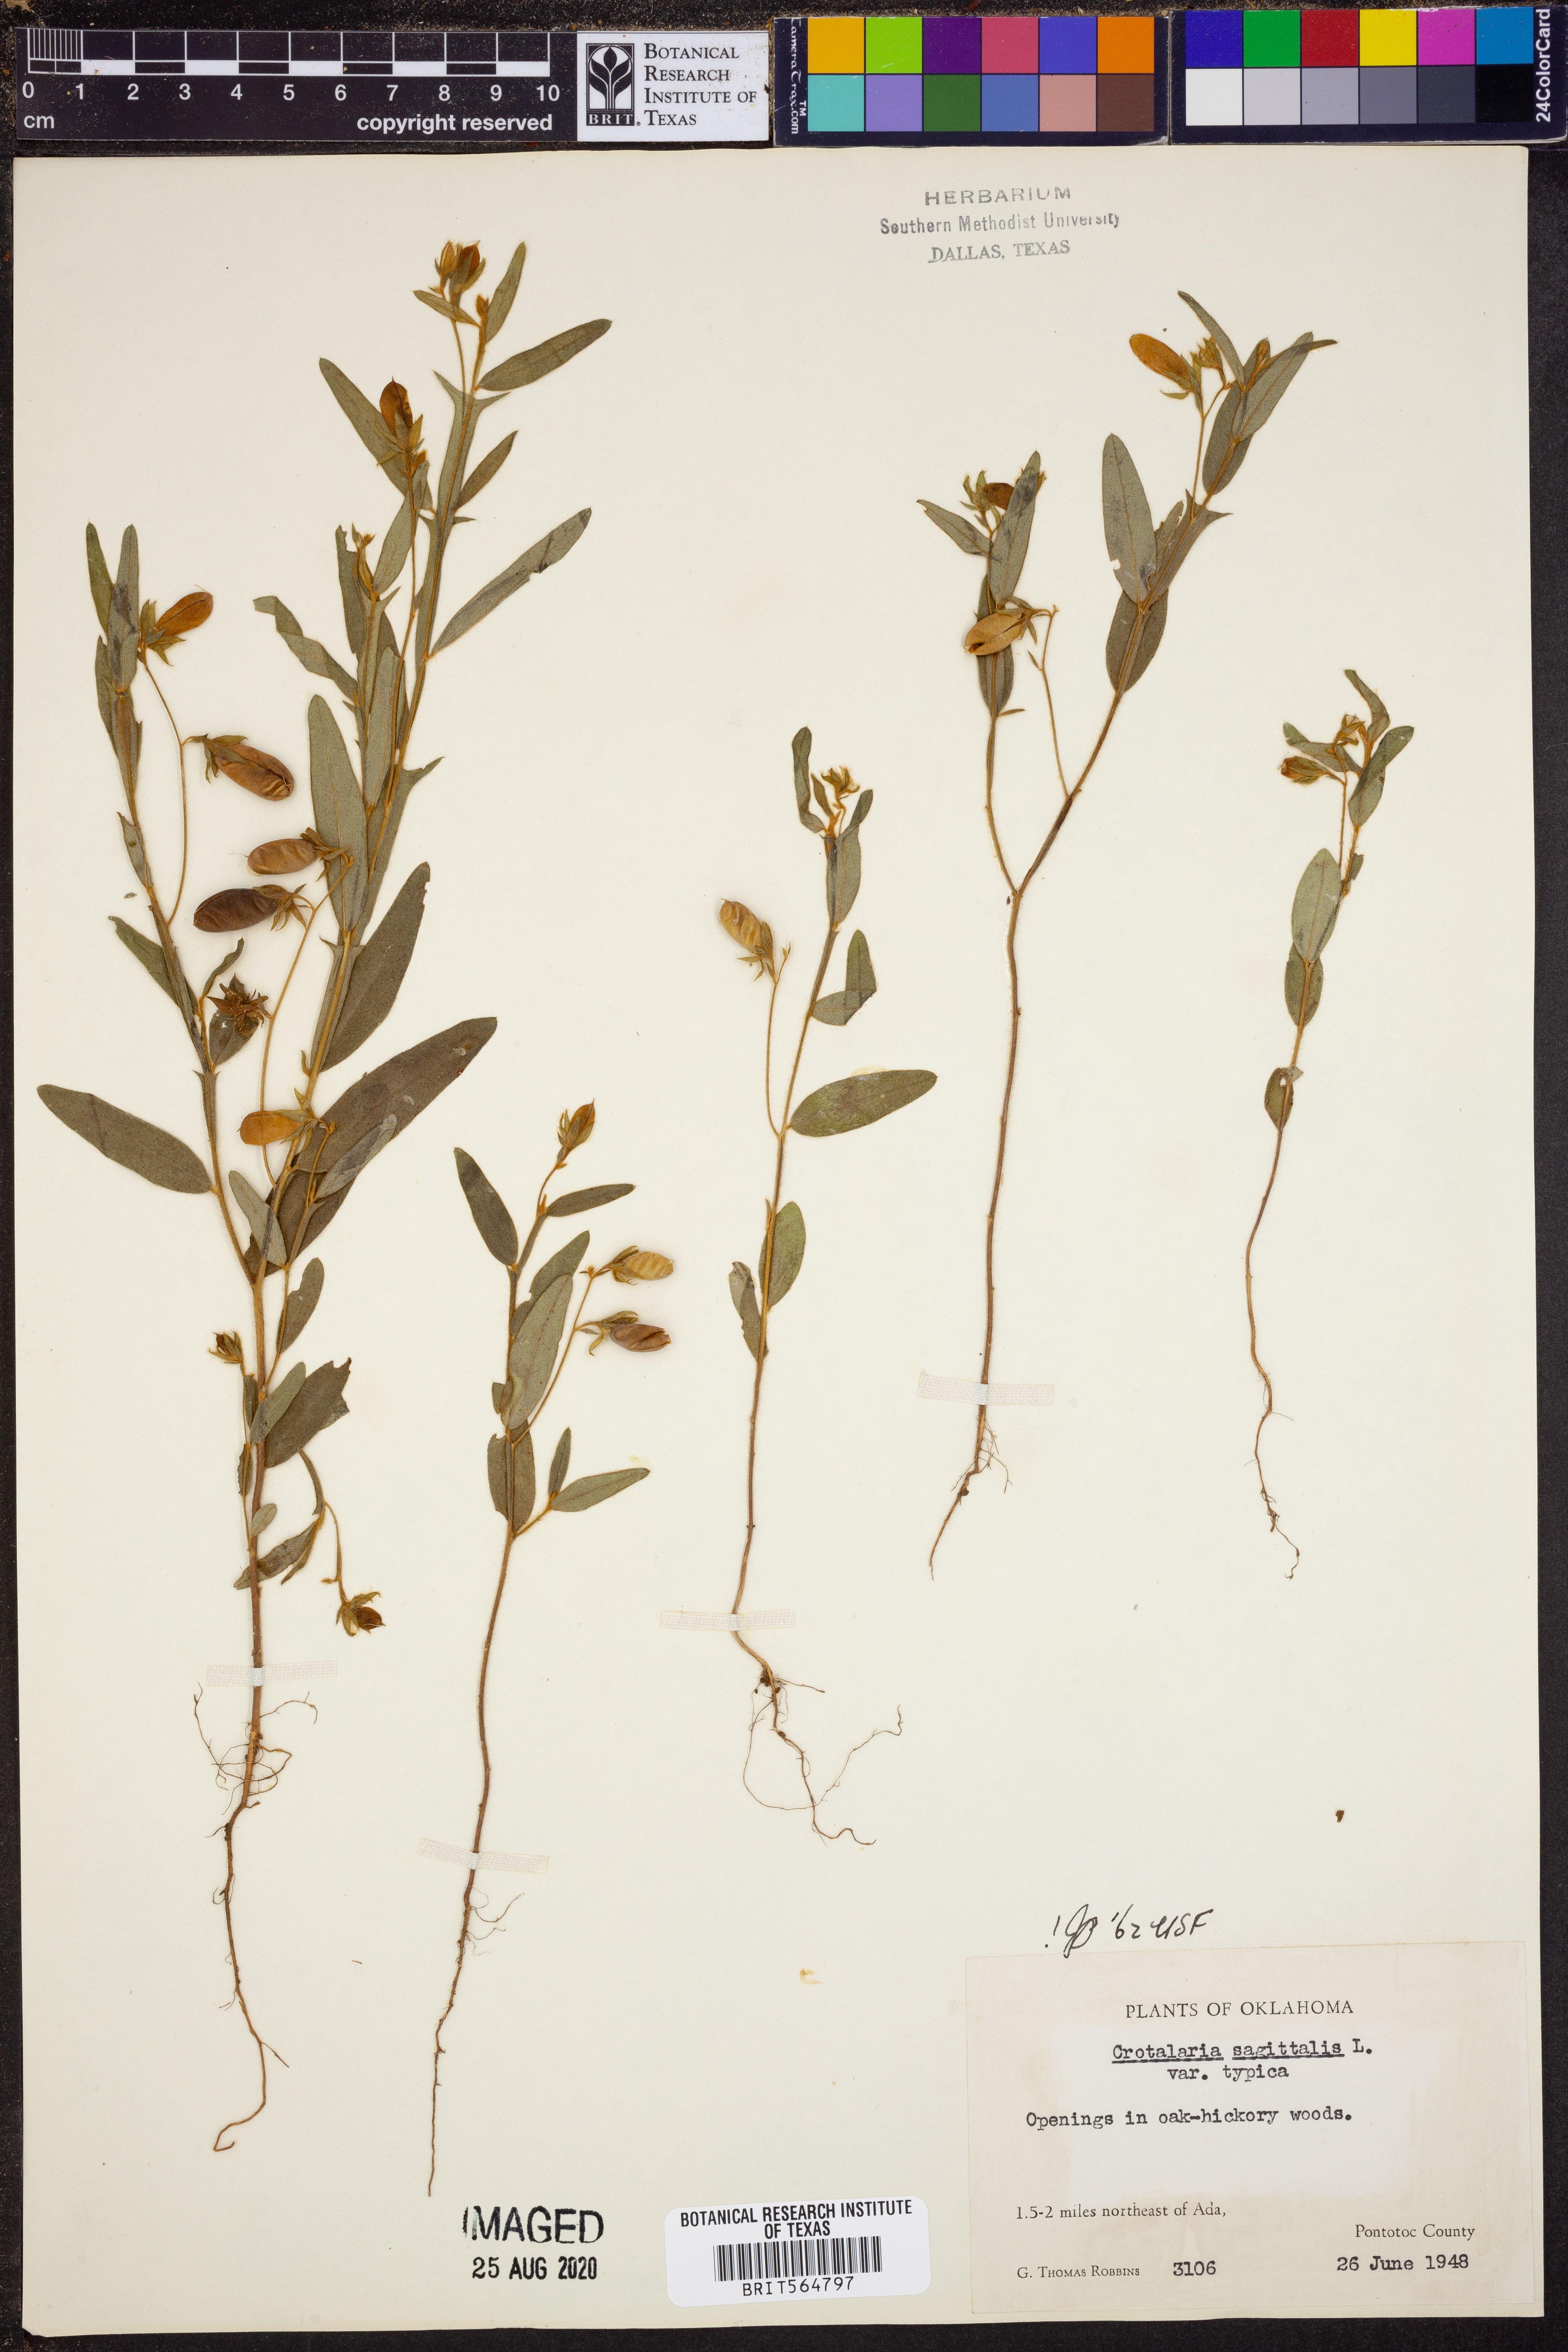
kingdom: Plantae
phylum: Tracheophyta
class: Magnoliopsida
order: Fabales
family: Fabaceae
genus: Crotalaria
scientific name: Crotalaria sagittalis
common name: Arrowhead rattlebox
